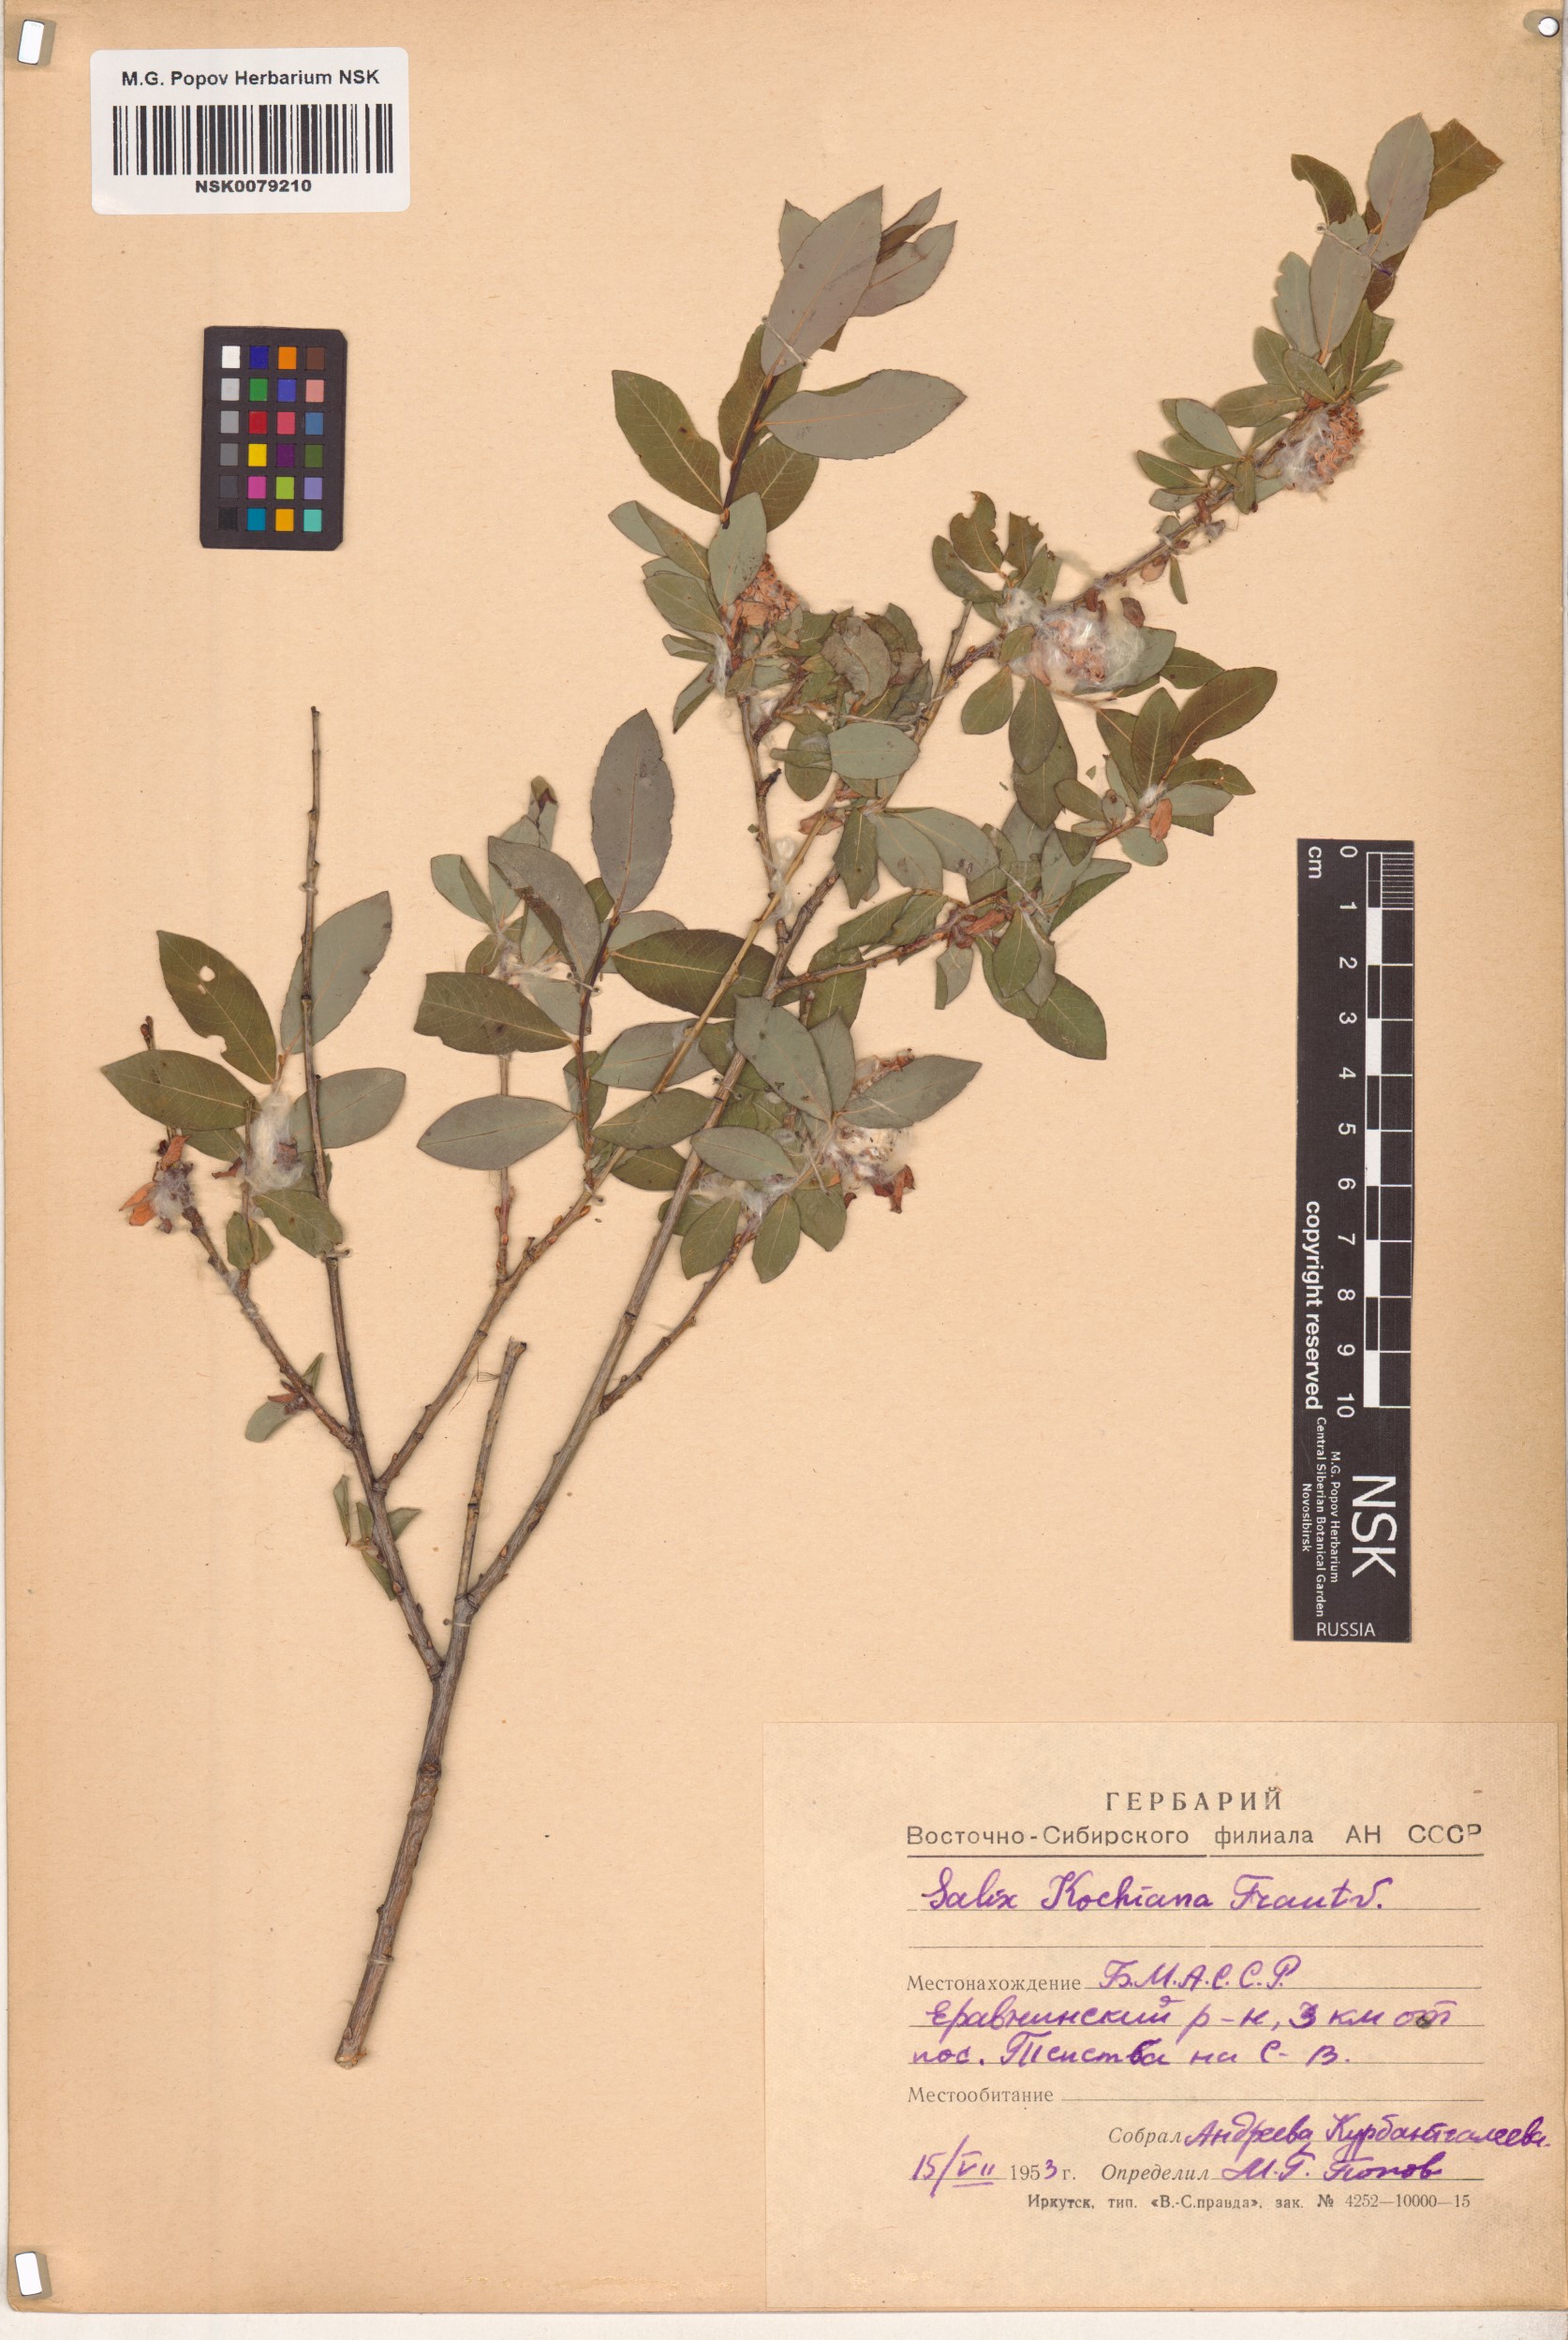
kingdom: Plantae
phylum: Tracheophyta
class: Magnoliopsida
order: Malpighiales
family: Salicaceae
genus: Salix
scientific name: Salix kochiana
